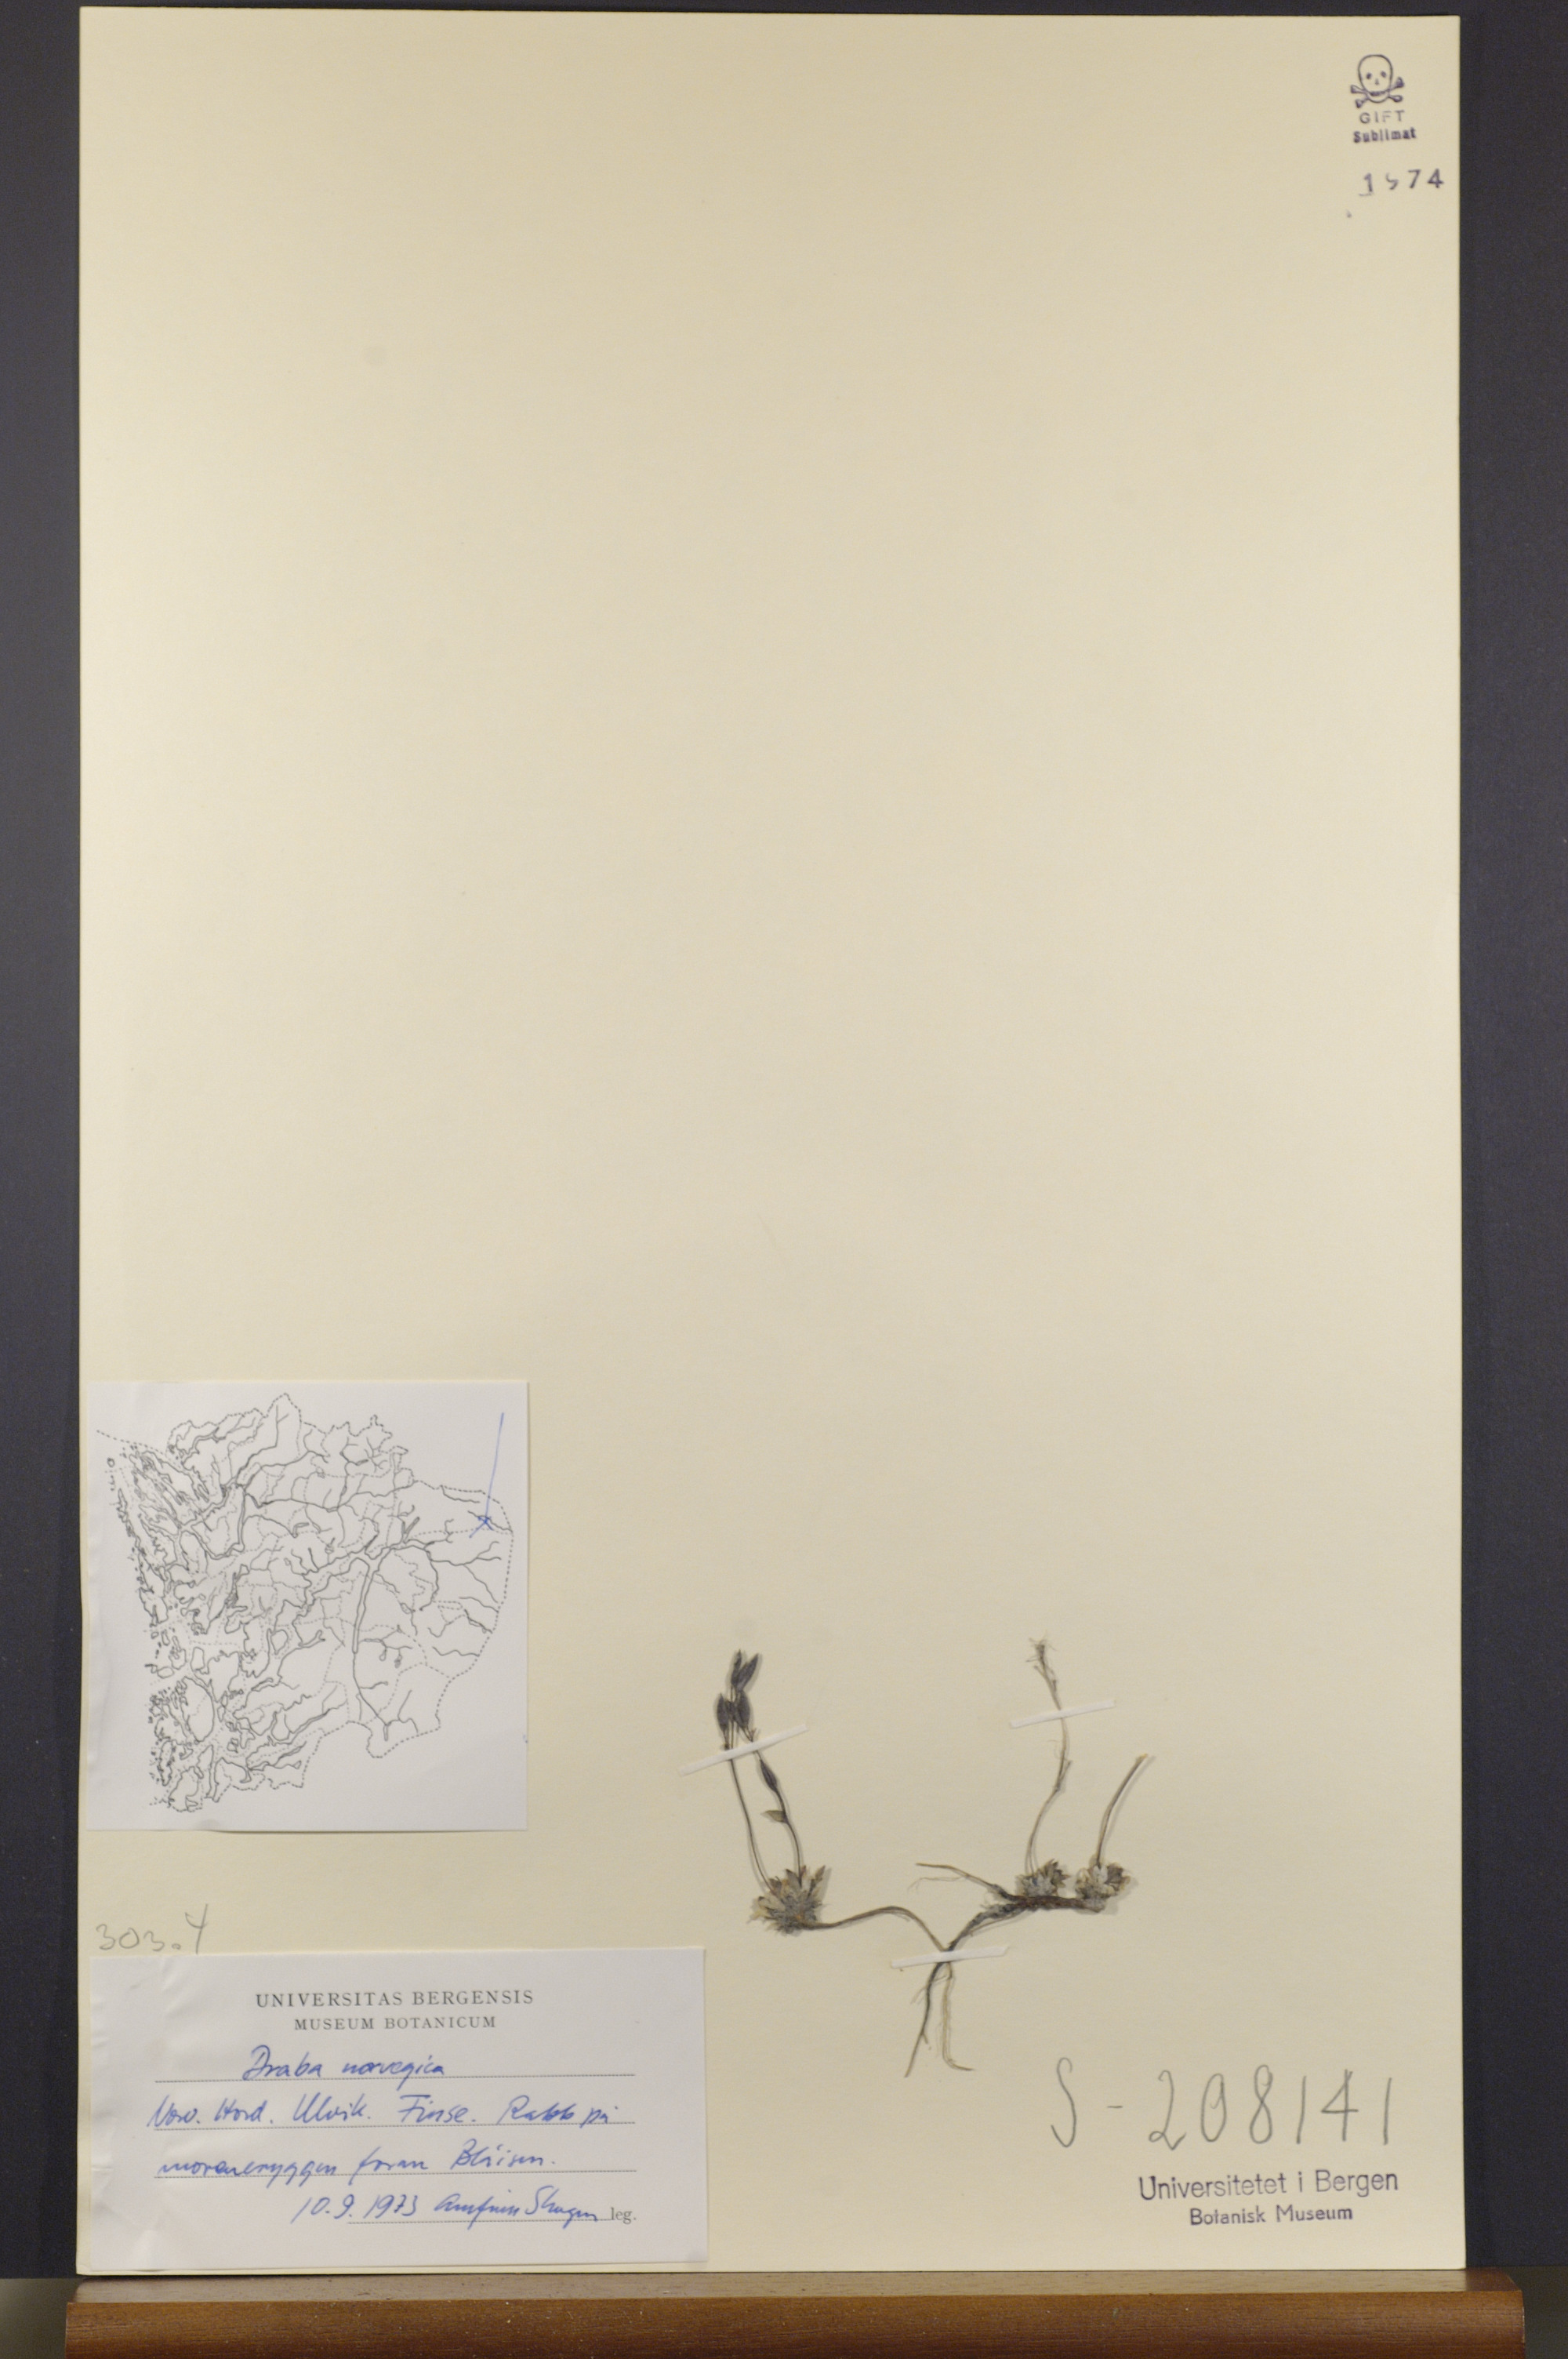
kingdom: Plantae
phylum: Tracheophyta
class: Magnoliopsida
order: Brassicales
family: Brassicaceae
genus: Draba
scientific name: Draba norvegica
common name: Rock whitlowgrass
